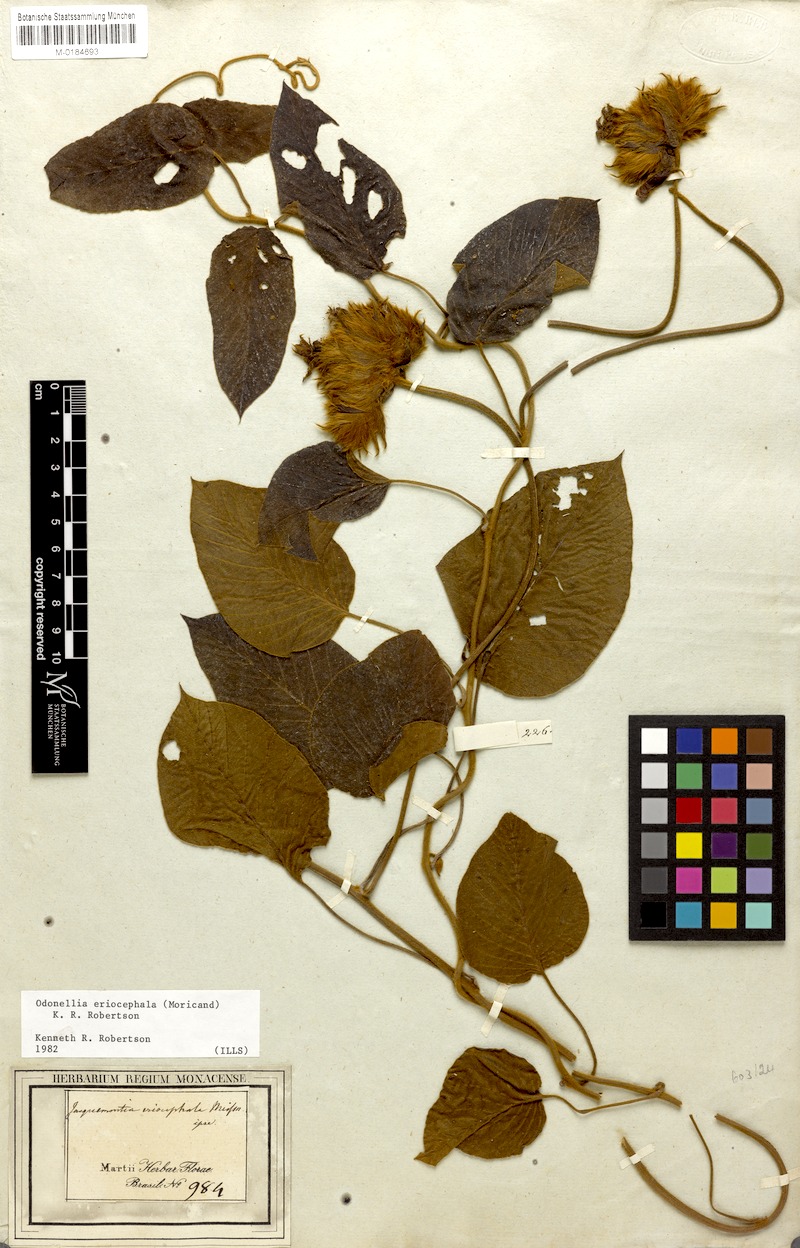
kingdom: Plantae
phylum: Tracheophyta
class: Magnoliopsida
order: Solanales
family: Convolvulaceae
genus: Odonellia
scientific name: Odonellia eriocephala
